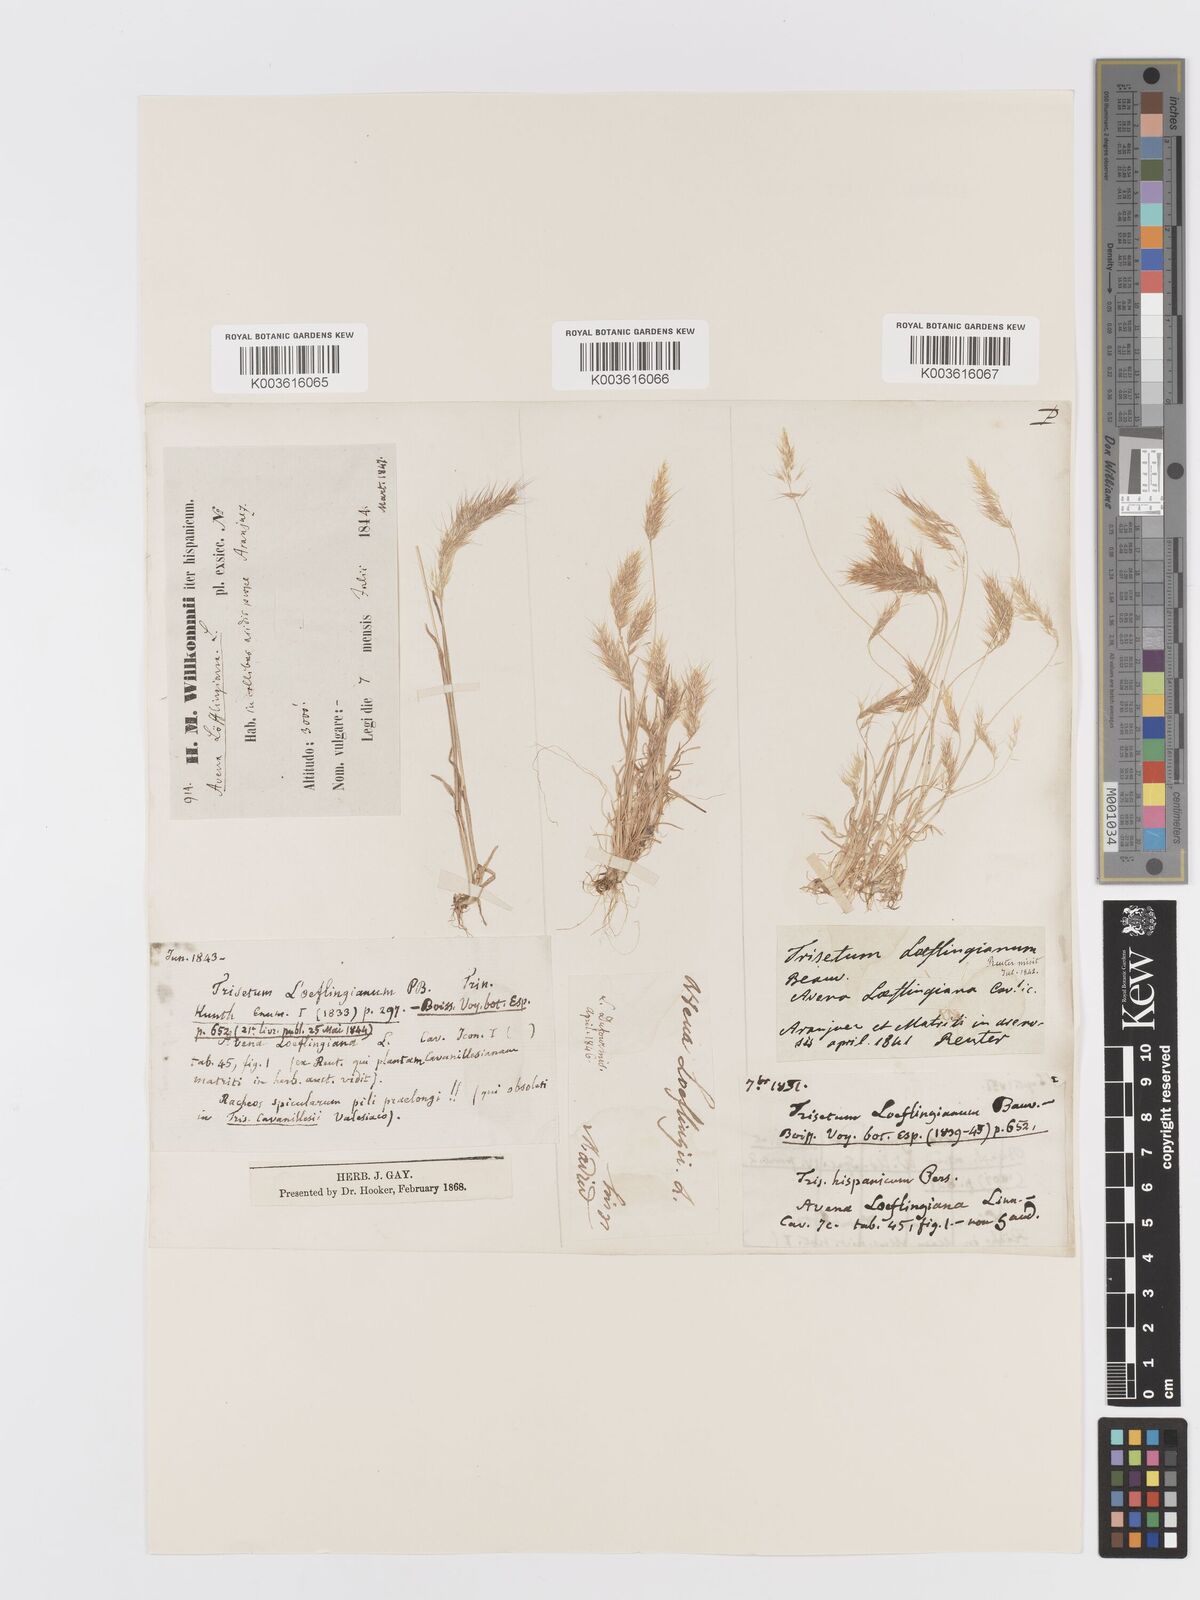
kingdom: Plantae
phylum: Tracheophyta
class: Liliopsida
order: Poales
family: Poaceae
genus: Trisetaria
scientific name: Trisetaria loeflingiana
